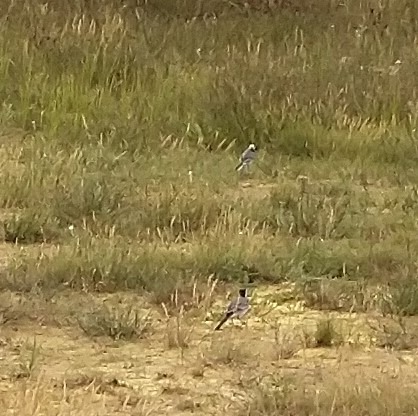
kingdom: Animalia
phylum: Chordata
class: Aves
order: Passeriformes
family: Motacillidae
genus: Motacilla
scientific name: Motacilla alba
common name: Hvid vipstjert
